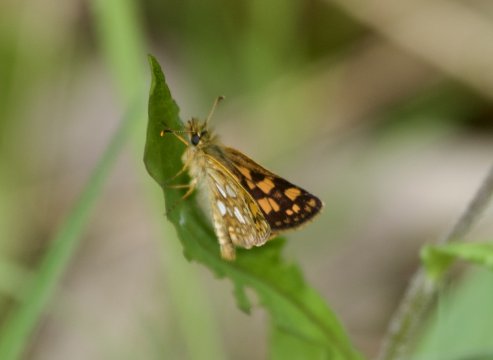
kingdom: Animalia
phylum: Arthropoda
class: Insecta
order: Lepidoptera
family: Hesperiidae
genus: Carterocephalus
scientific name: Carterocephalus palaemon
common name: Chequered Skipper
